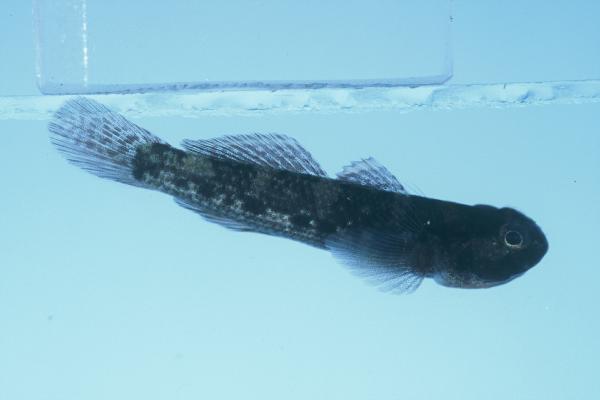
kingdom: Animalia
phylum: Chordata
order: Perciformes
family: Gobiidae
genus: Bathygobius
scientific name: Bathygobius cocosensis
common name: Cocos frillgoby
